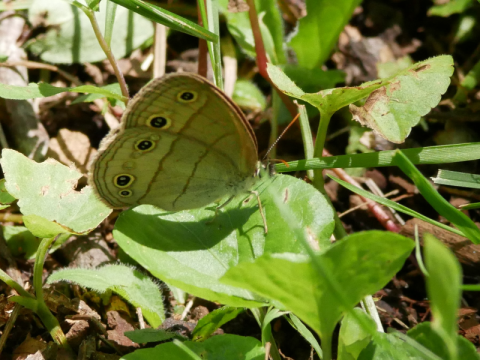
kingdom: Animalia
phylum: Arthropoda
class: Insecta
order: Lepidoptera
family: Nymphalidae
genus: Euptychia
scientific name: Euptychia cymela
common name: Little Wood Satyr
